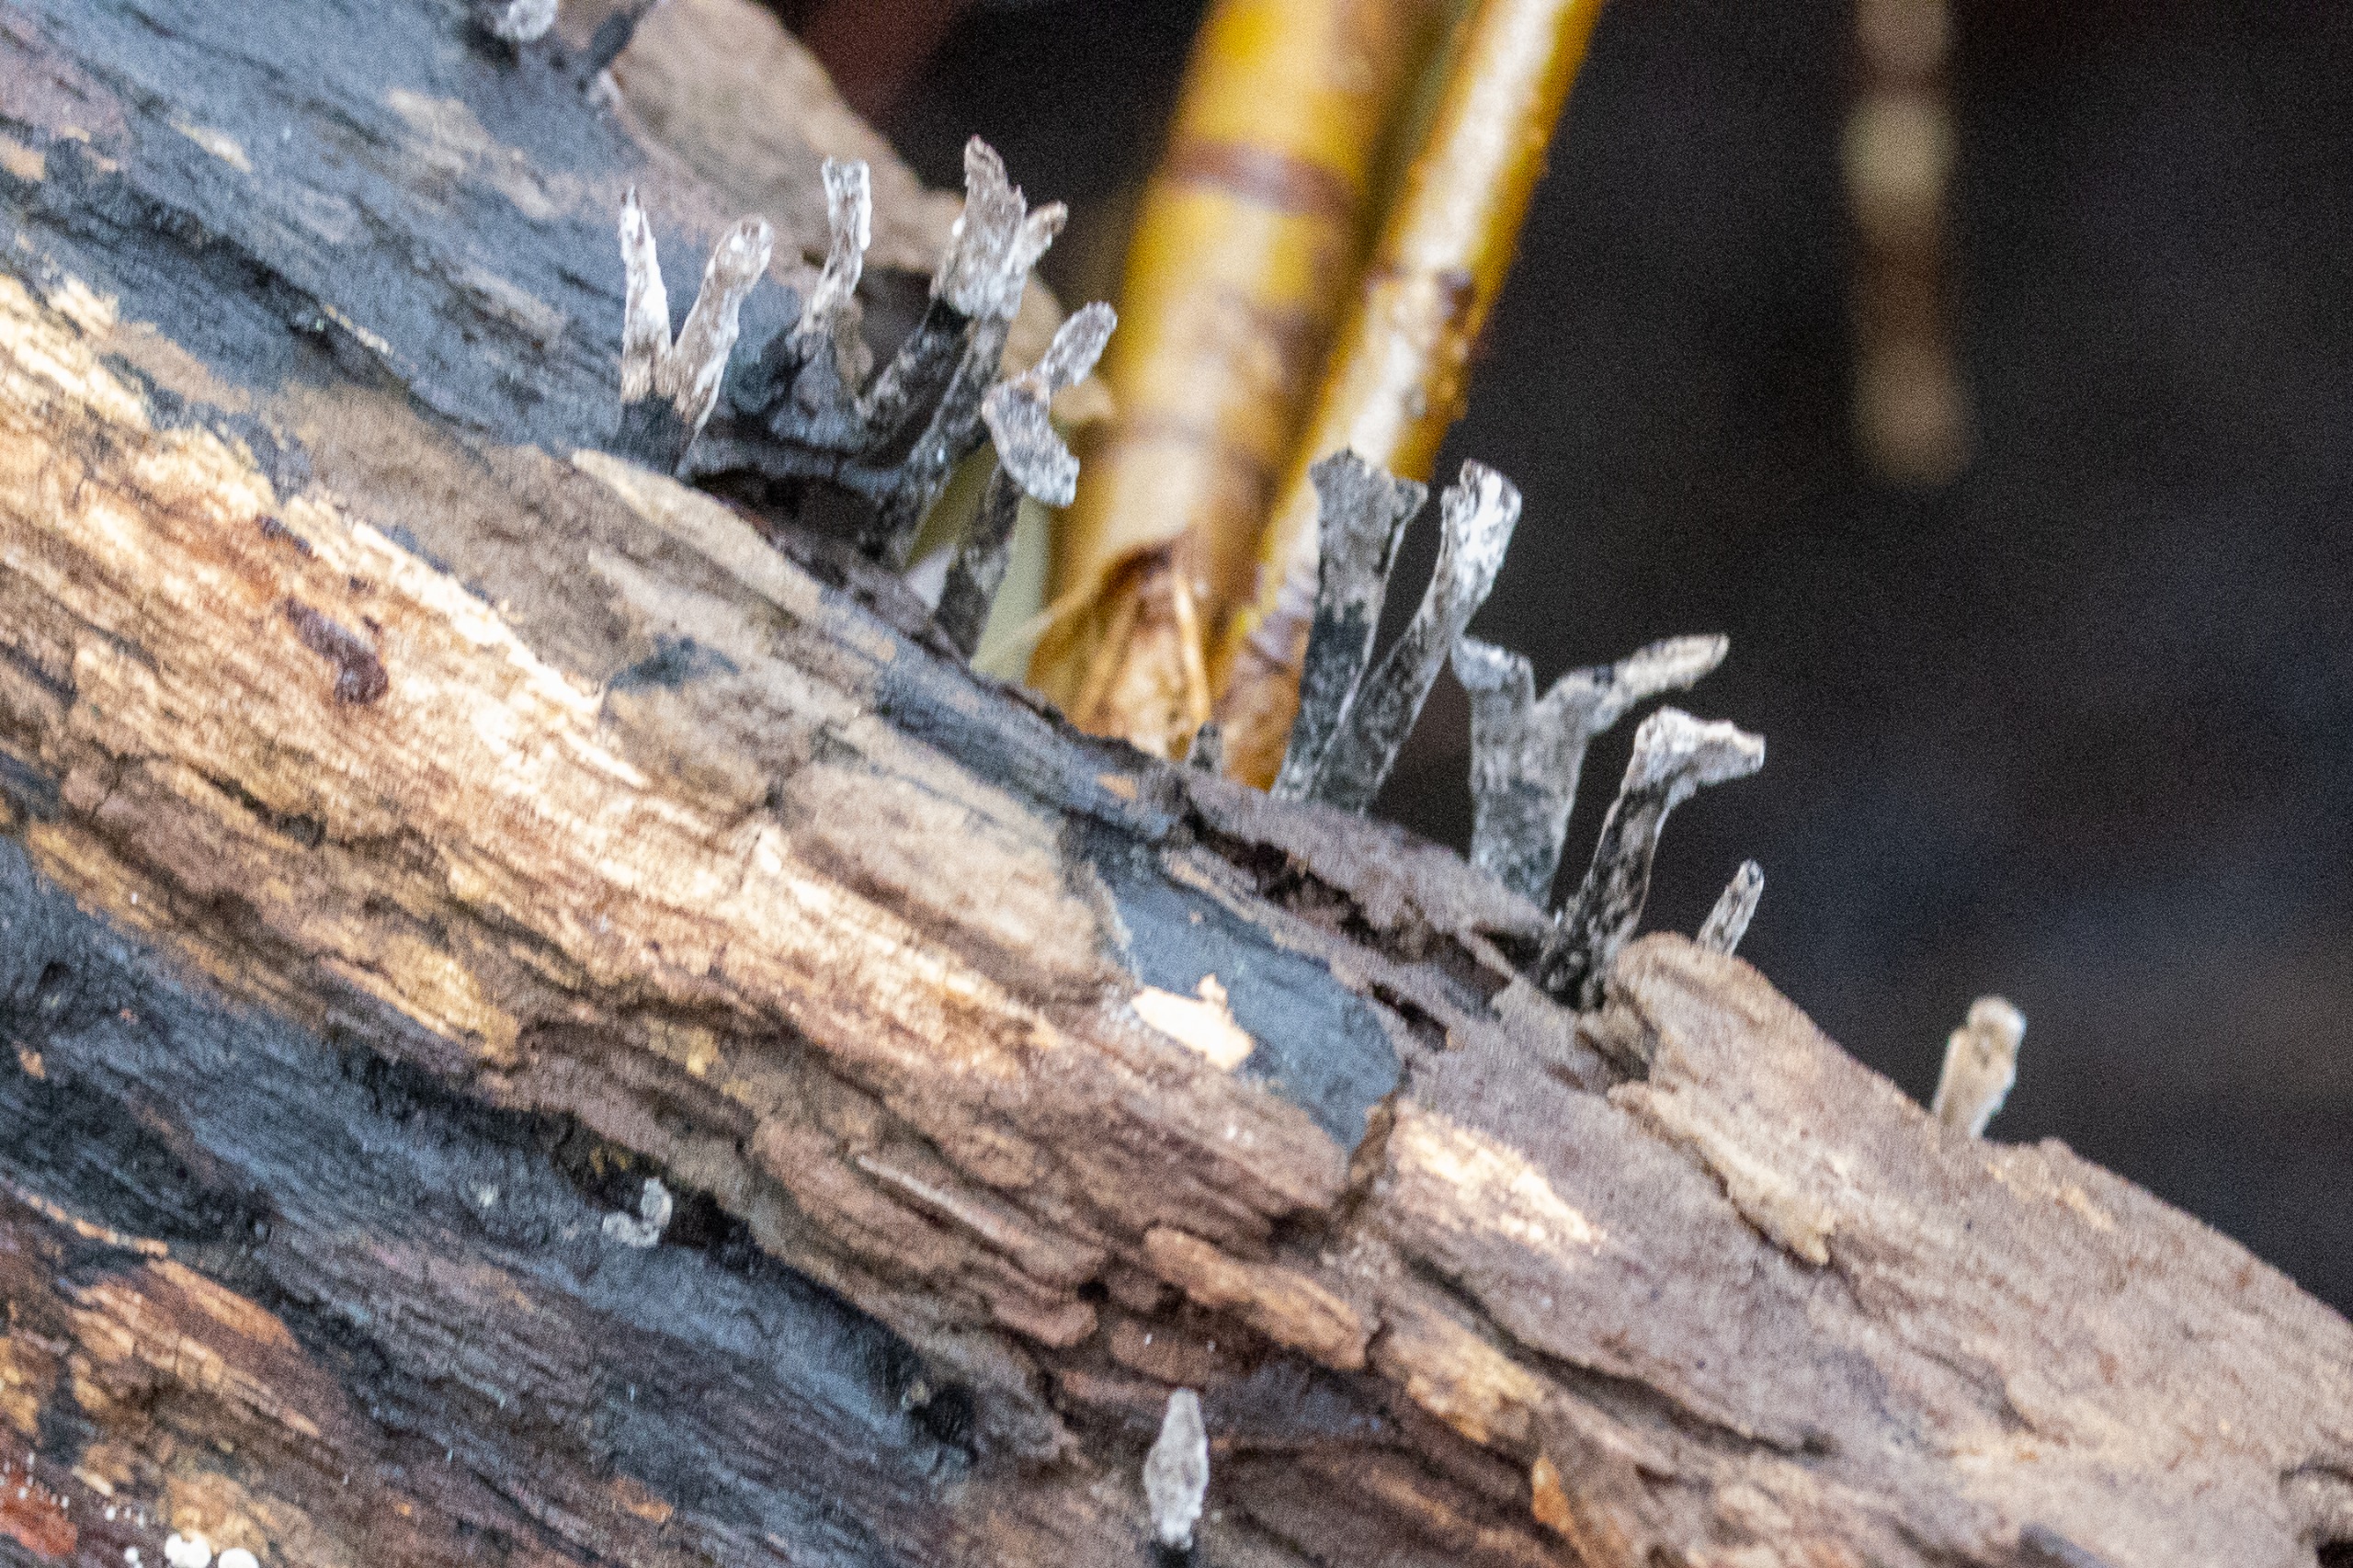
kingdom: Fungi
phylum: Ascomycota
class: Sordariomycetes
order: Xylariales
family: Xylariaceae
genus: Xylaria
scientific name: Xylaria hypoxylon
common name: Grenet stødsvamp
